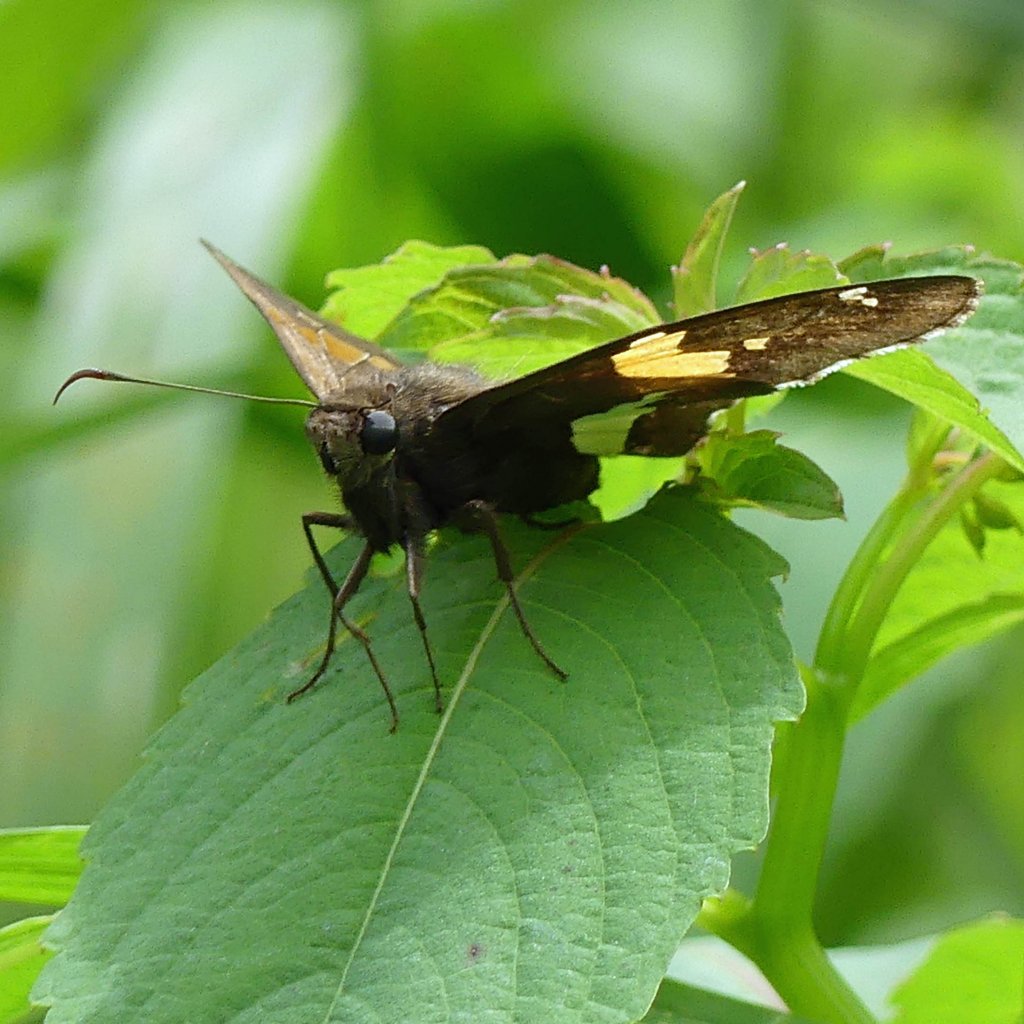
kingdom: Animalia
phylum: Arthropoda
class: Insecta
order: Lepidoptera
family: Hesperiidae
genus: Epargyreus
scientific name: Epargyreus clarus
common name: Silver-spotted Skipper
